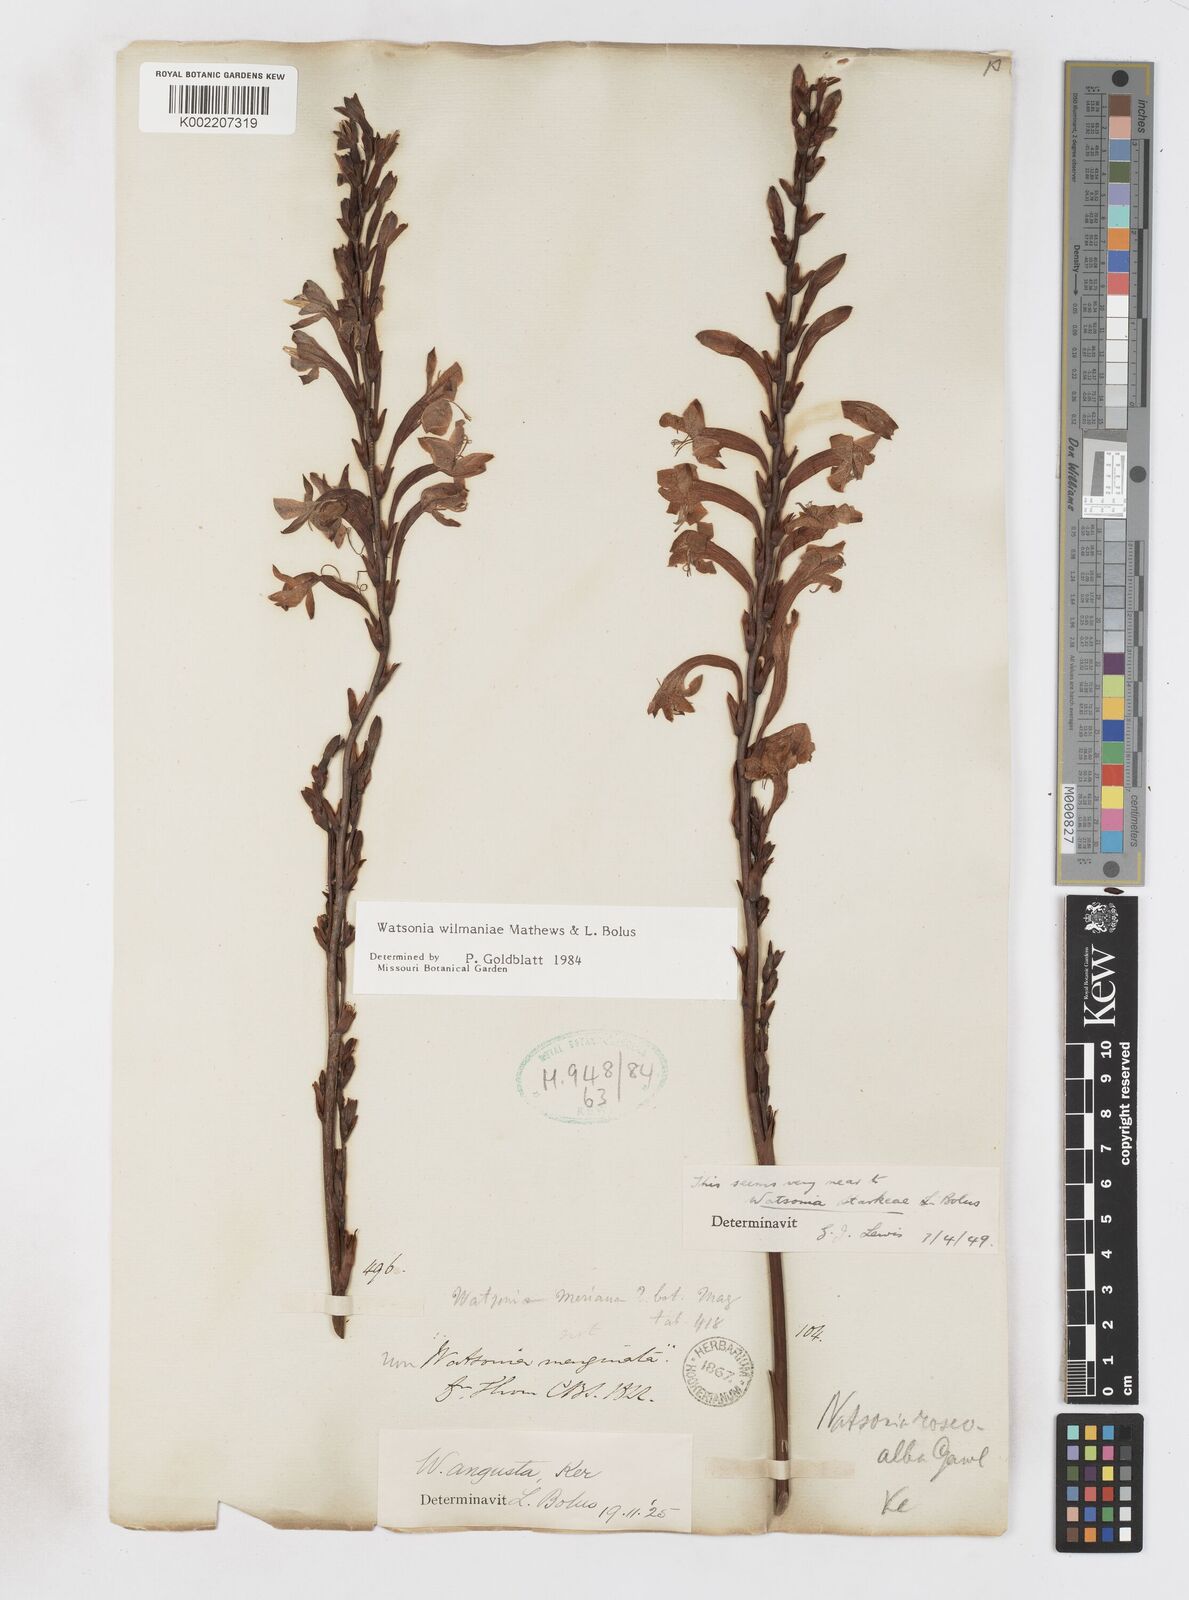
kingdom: Plantae
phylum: Tracheophyta
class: Liliopsida
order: Asparagales
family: Iridaceae
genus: Watsonia
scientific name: Watsonia wilmaniae
